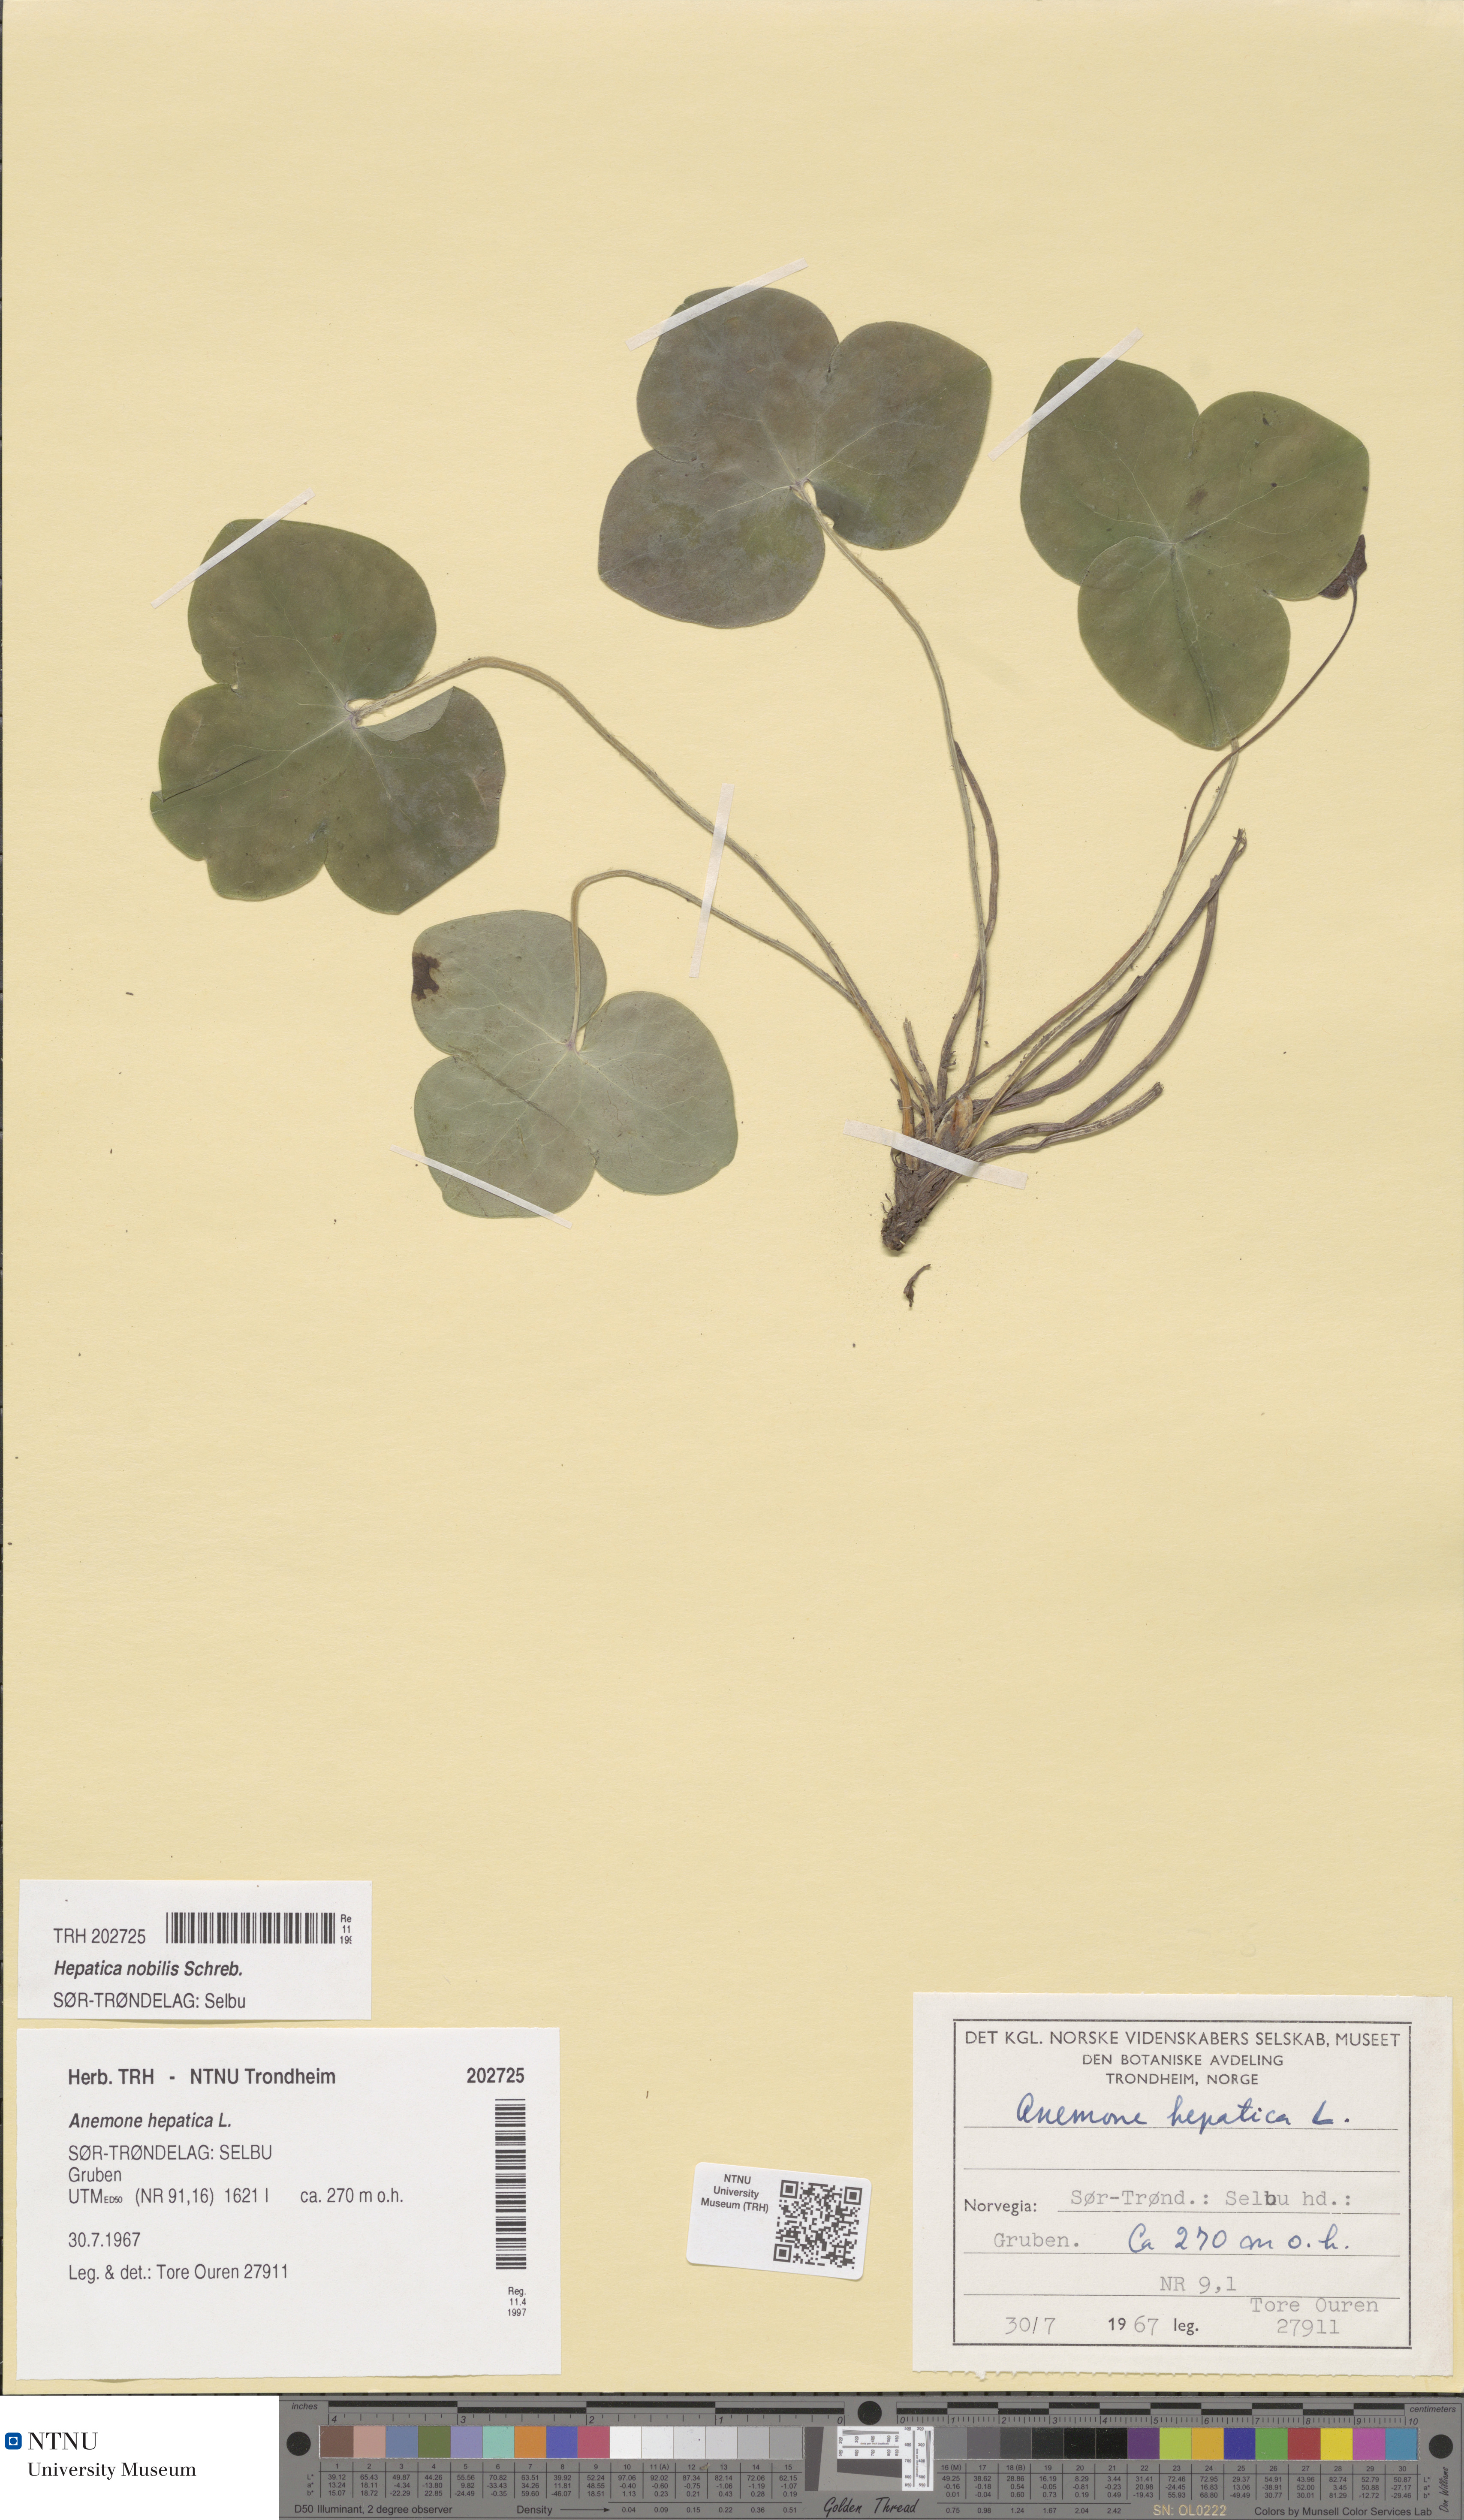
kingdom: Plantae
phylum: Tracheophyta
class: Magnoliopsida
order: Ranunculales
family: Ranunculaceae
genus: Hepatica
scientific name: Hepatica nobilis
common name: Liverleaf
